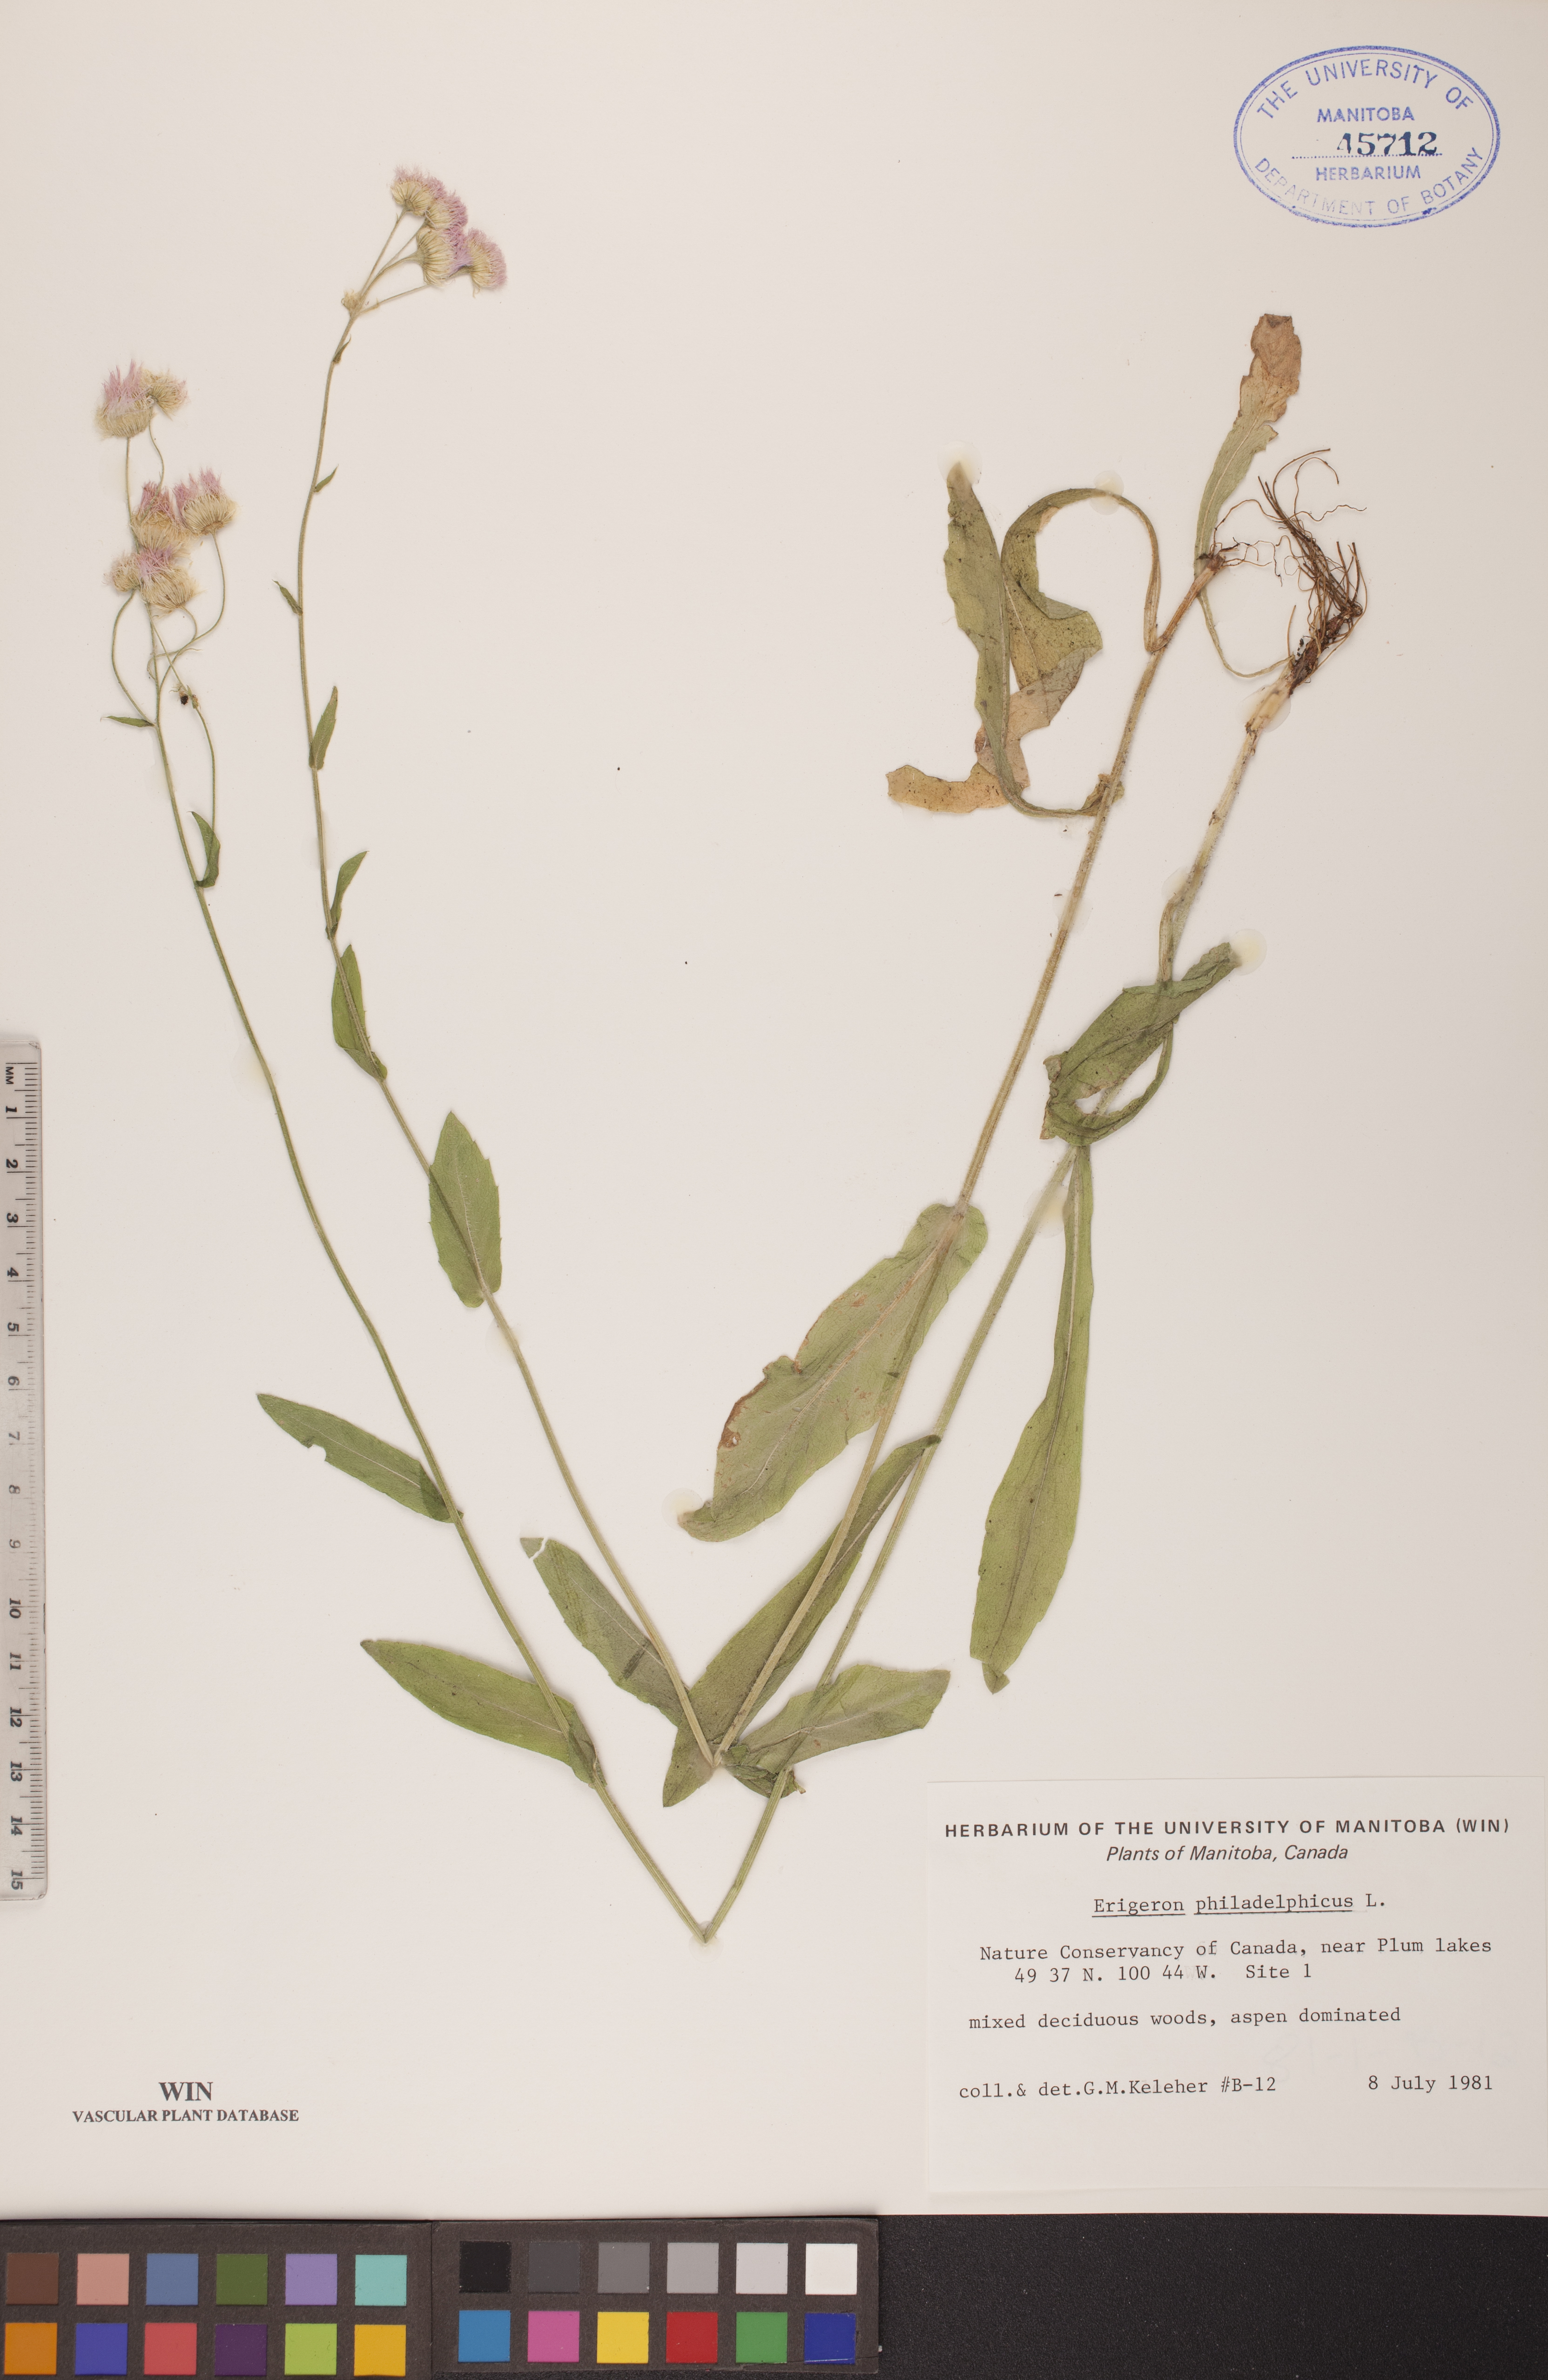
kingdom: Plantae
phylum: Tracheophyta
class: Magnoliopsida
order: Asterales
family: Asteraceae
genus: Erigeron
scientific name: Erigeron philadelphicus
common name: Robin's-plantain
